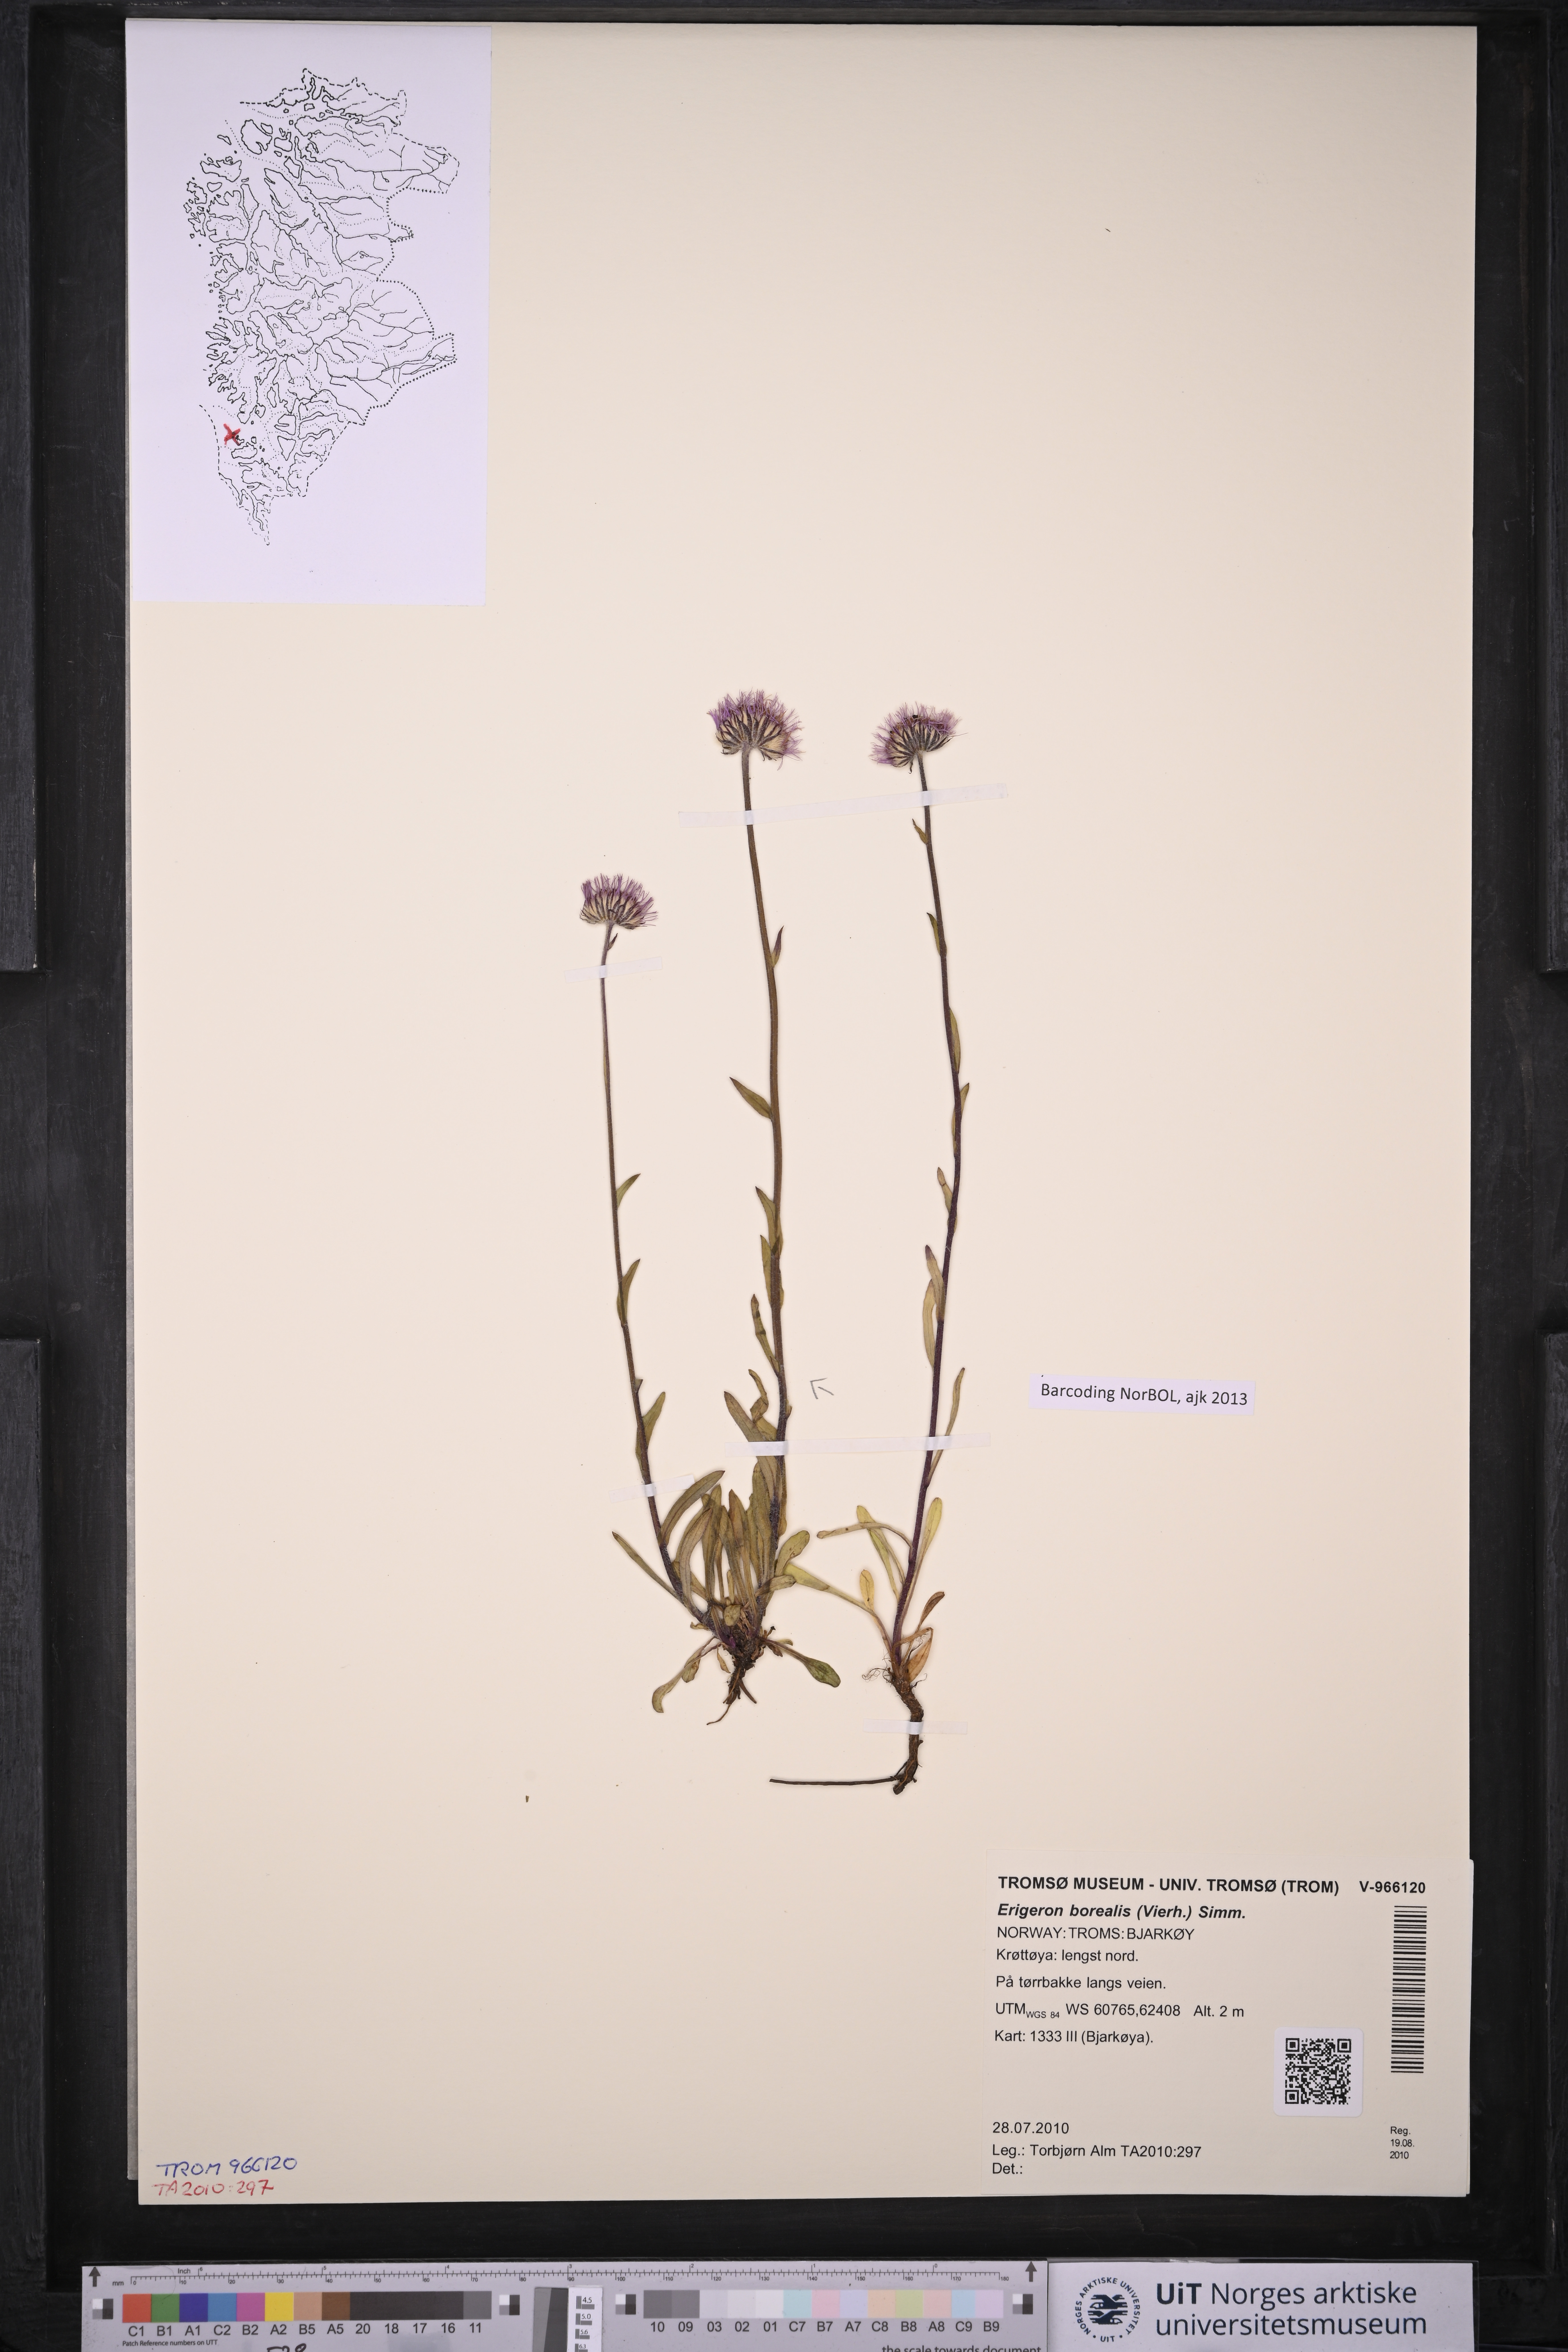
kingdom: Plantae
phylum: Tracheophyta
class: Magnoliopsida
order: Asterales
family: Asteraceae
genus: Erigeron
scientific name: Erigeron borealis
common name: Alpine fleabane
